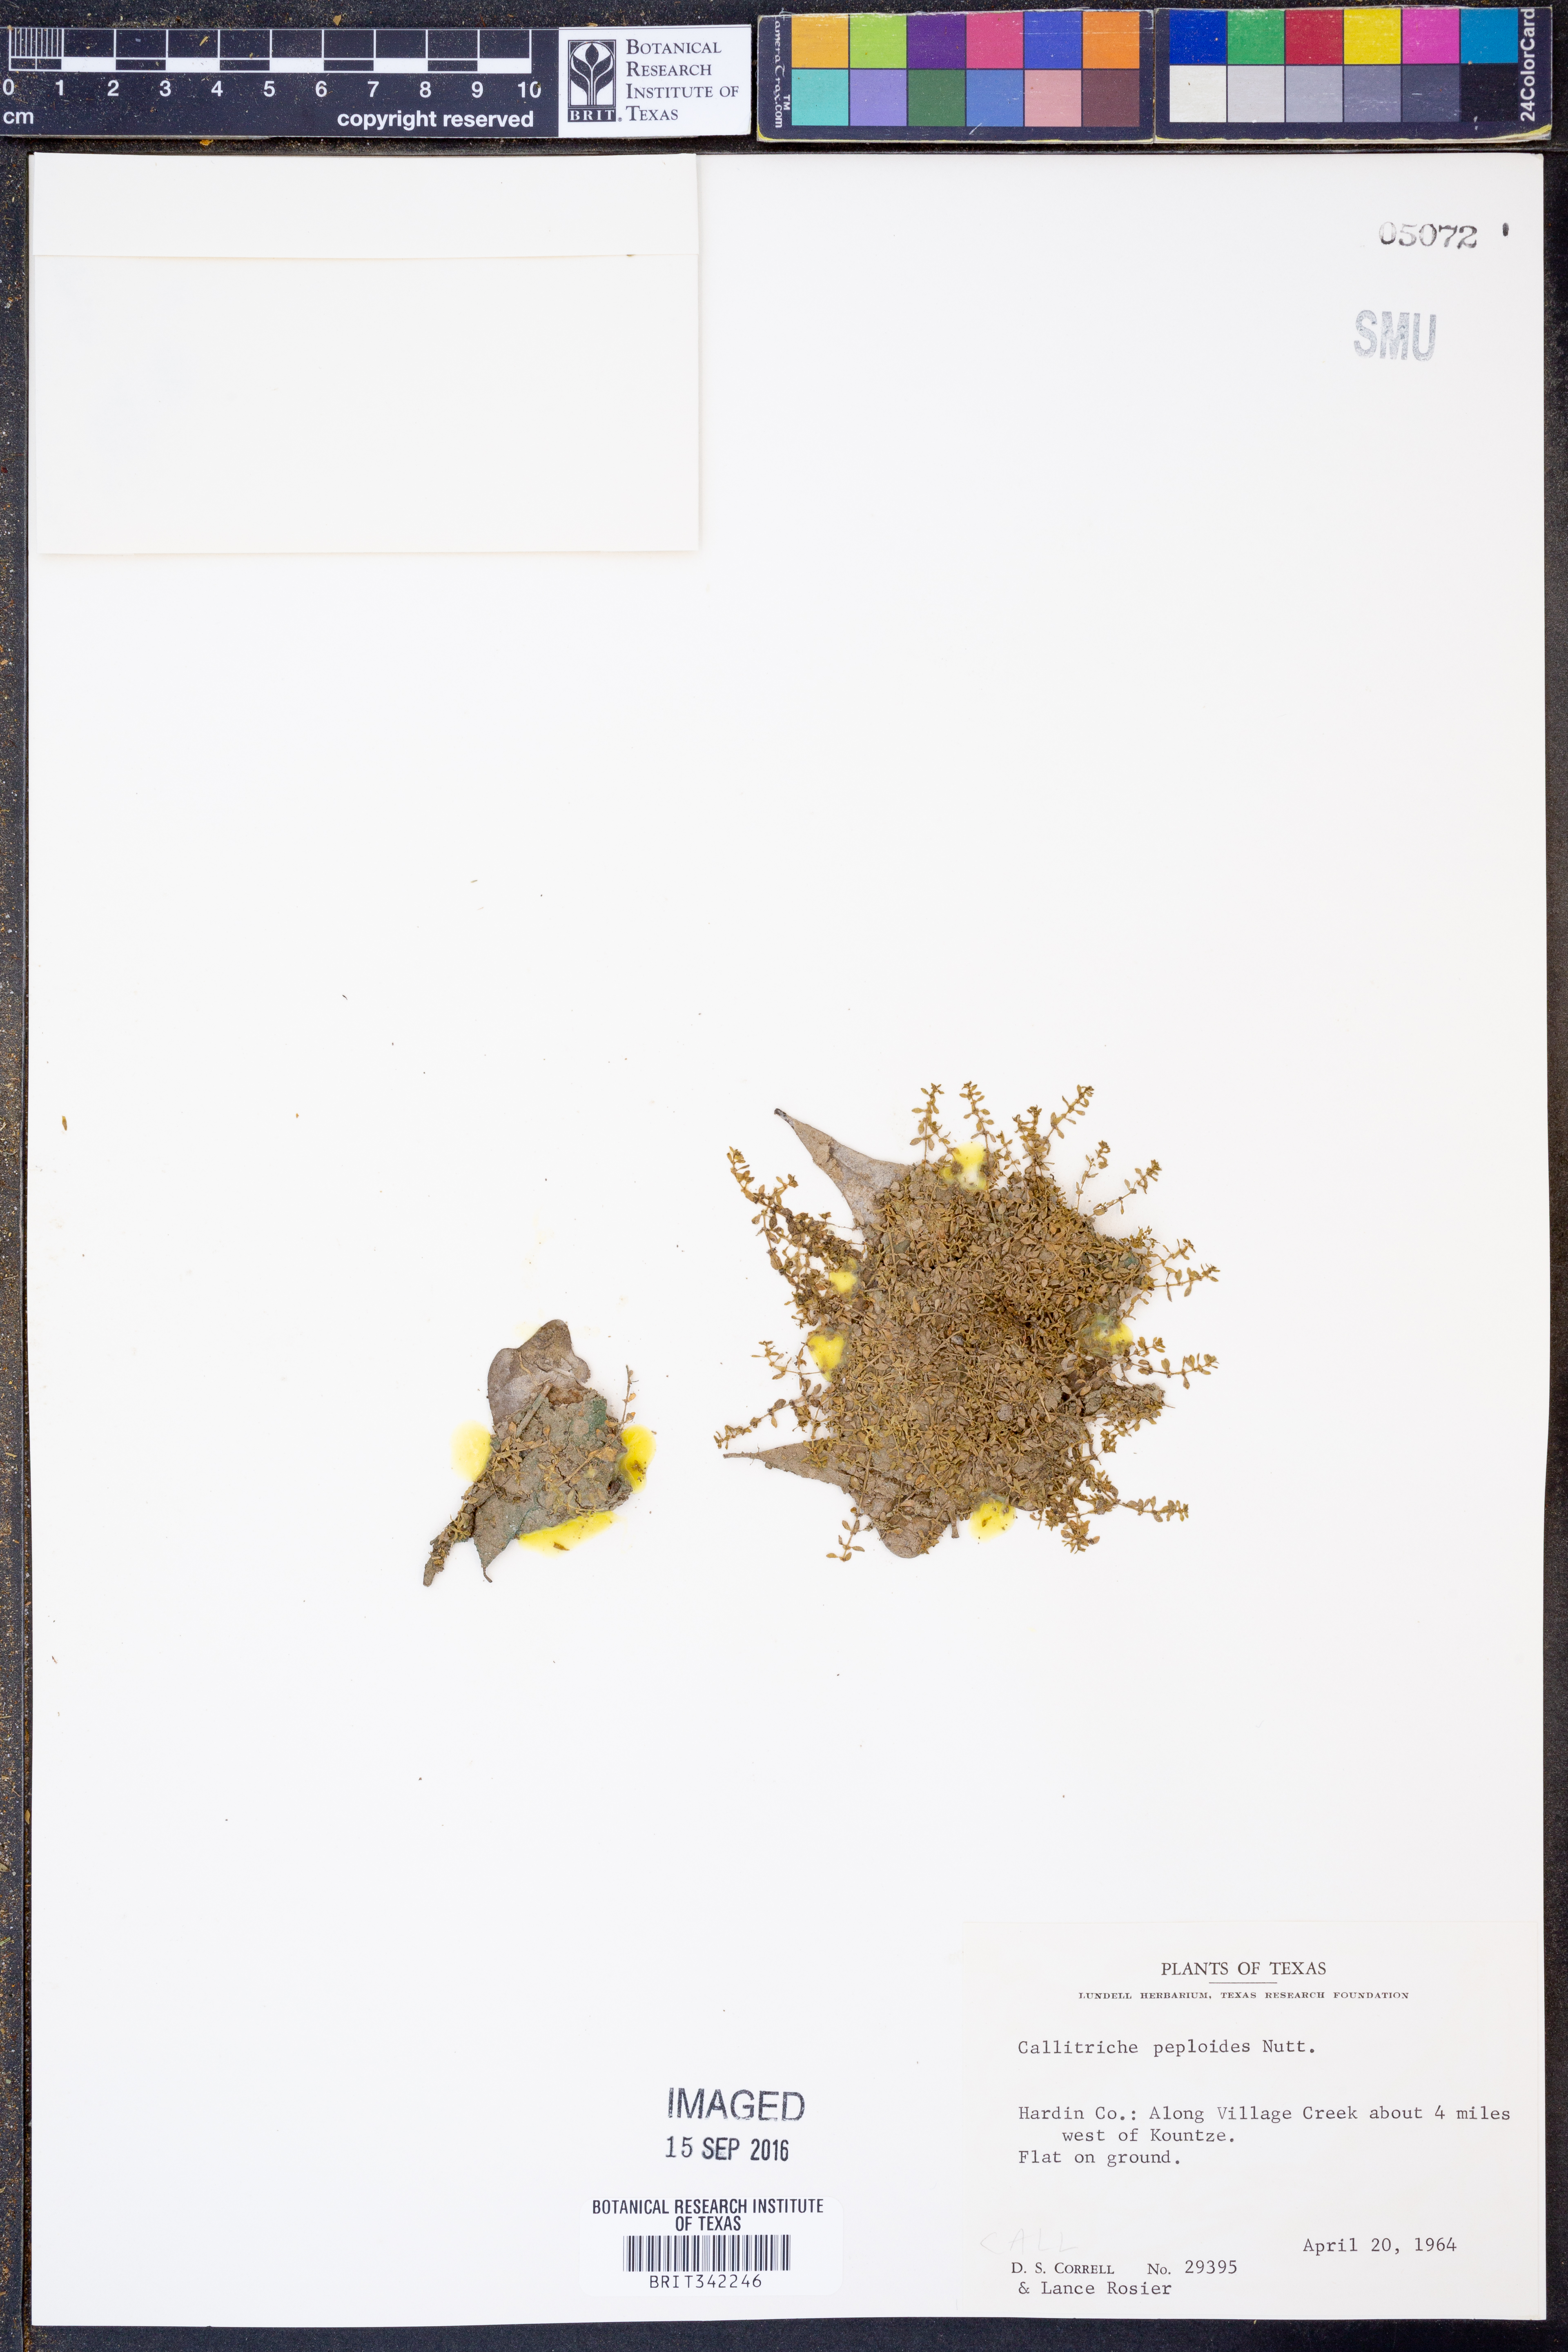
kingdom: Plantae
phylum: Tracheophyta
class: Magnoliopsida
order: Lamiales
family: Plantaginaceae
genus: Callitriche
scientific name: Callitriche peploides
